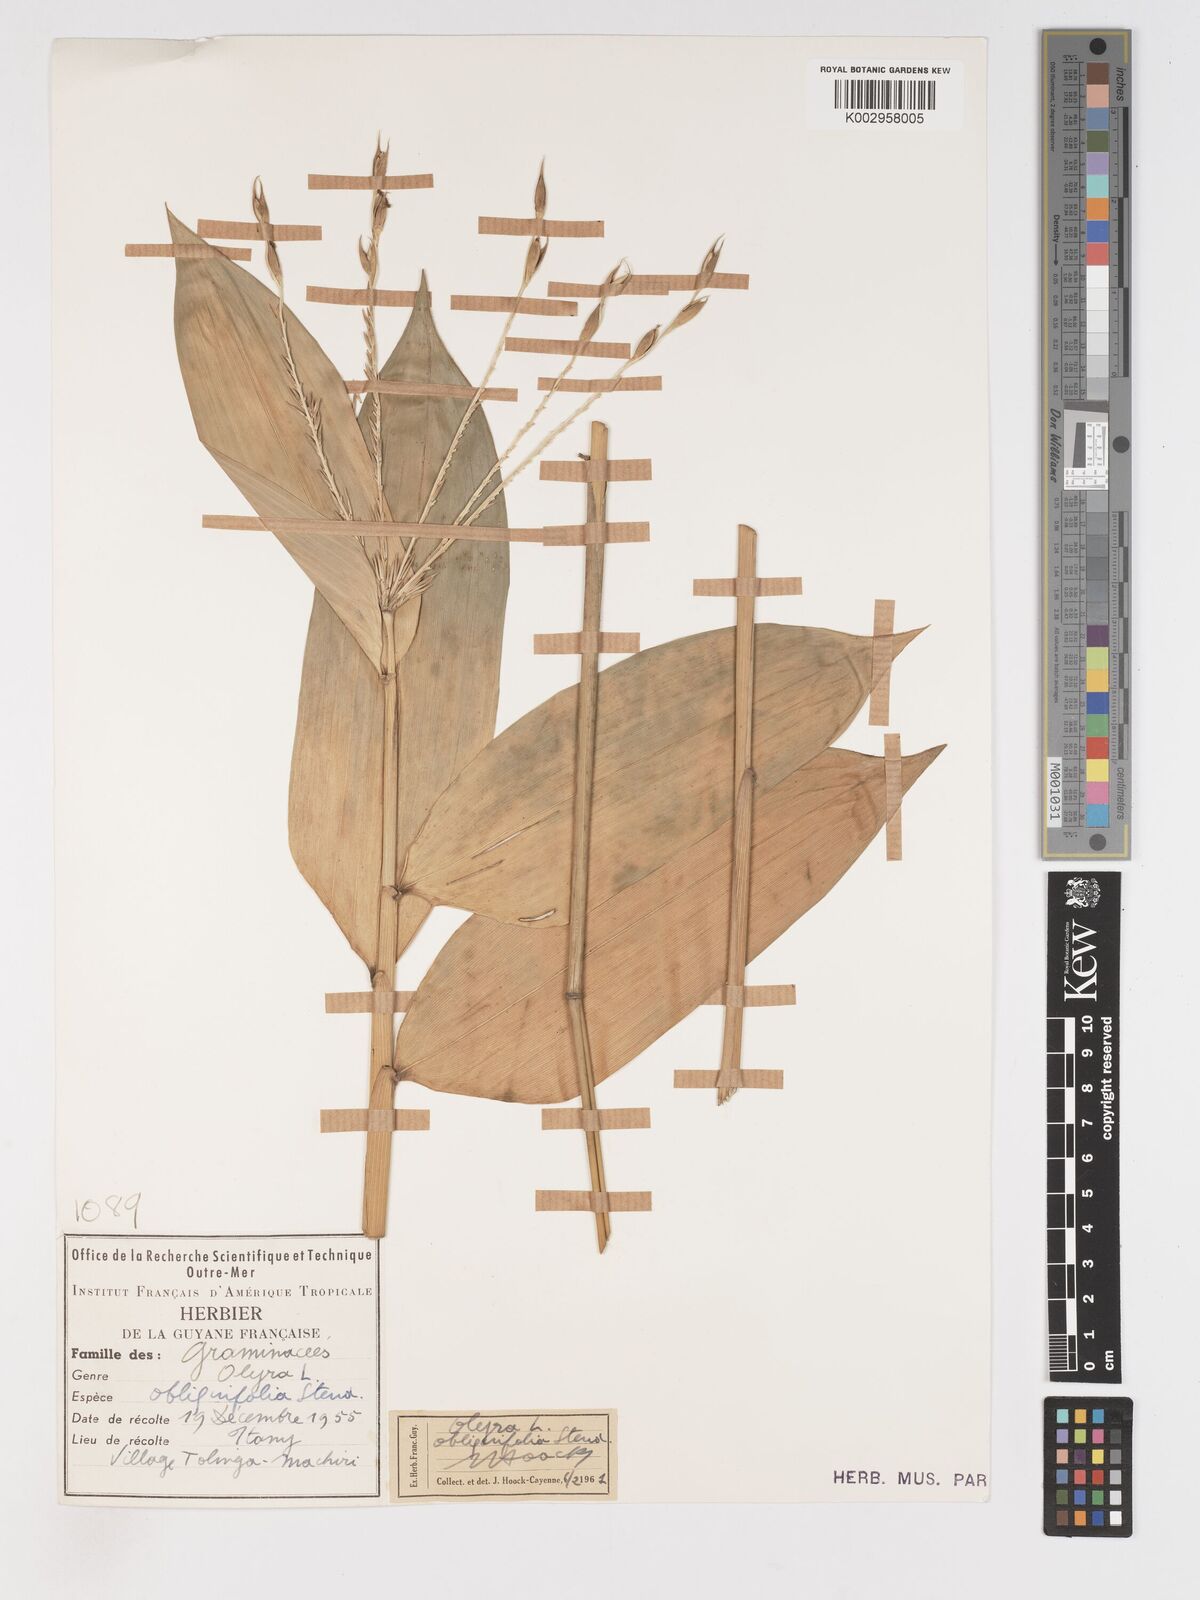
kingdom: Plantae
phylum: Tracheophyta
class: Liliopsida
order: Poales
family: Poaceae
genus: Olyra
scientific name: Olyra obliquifolia
